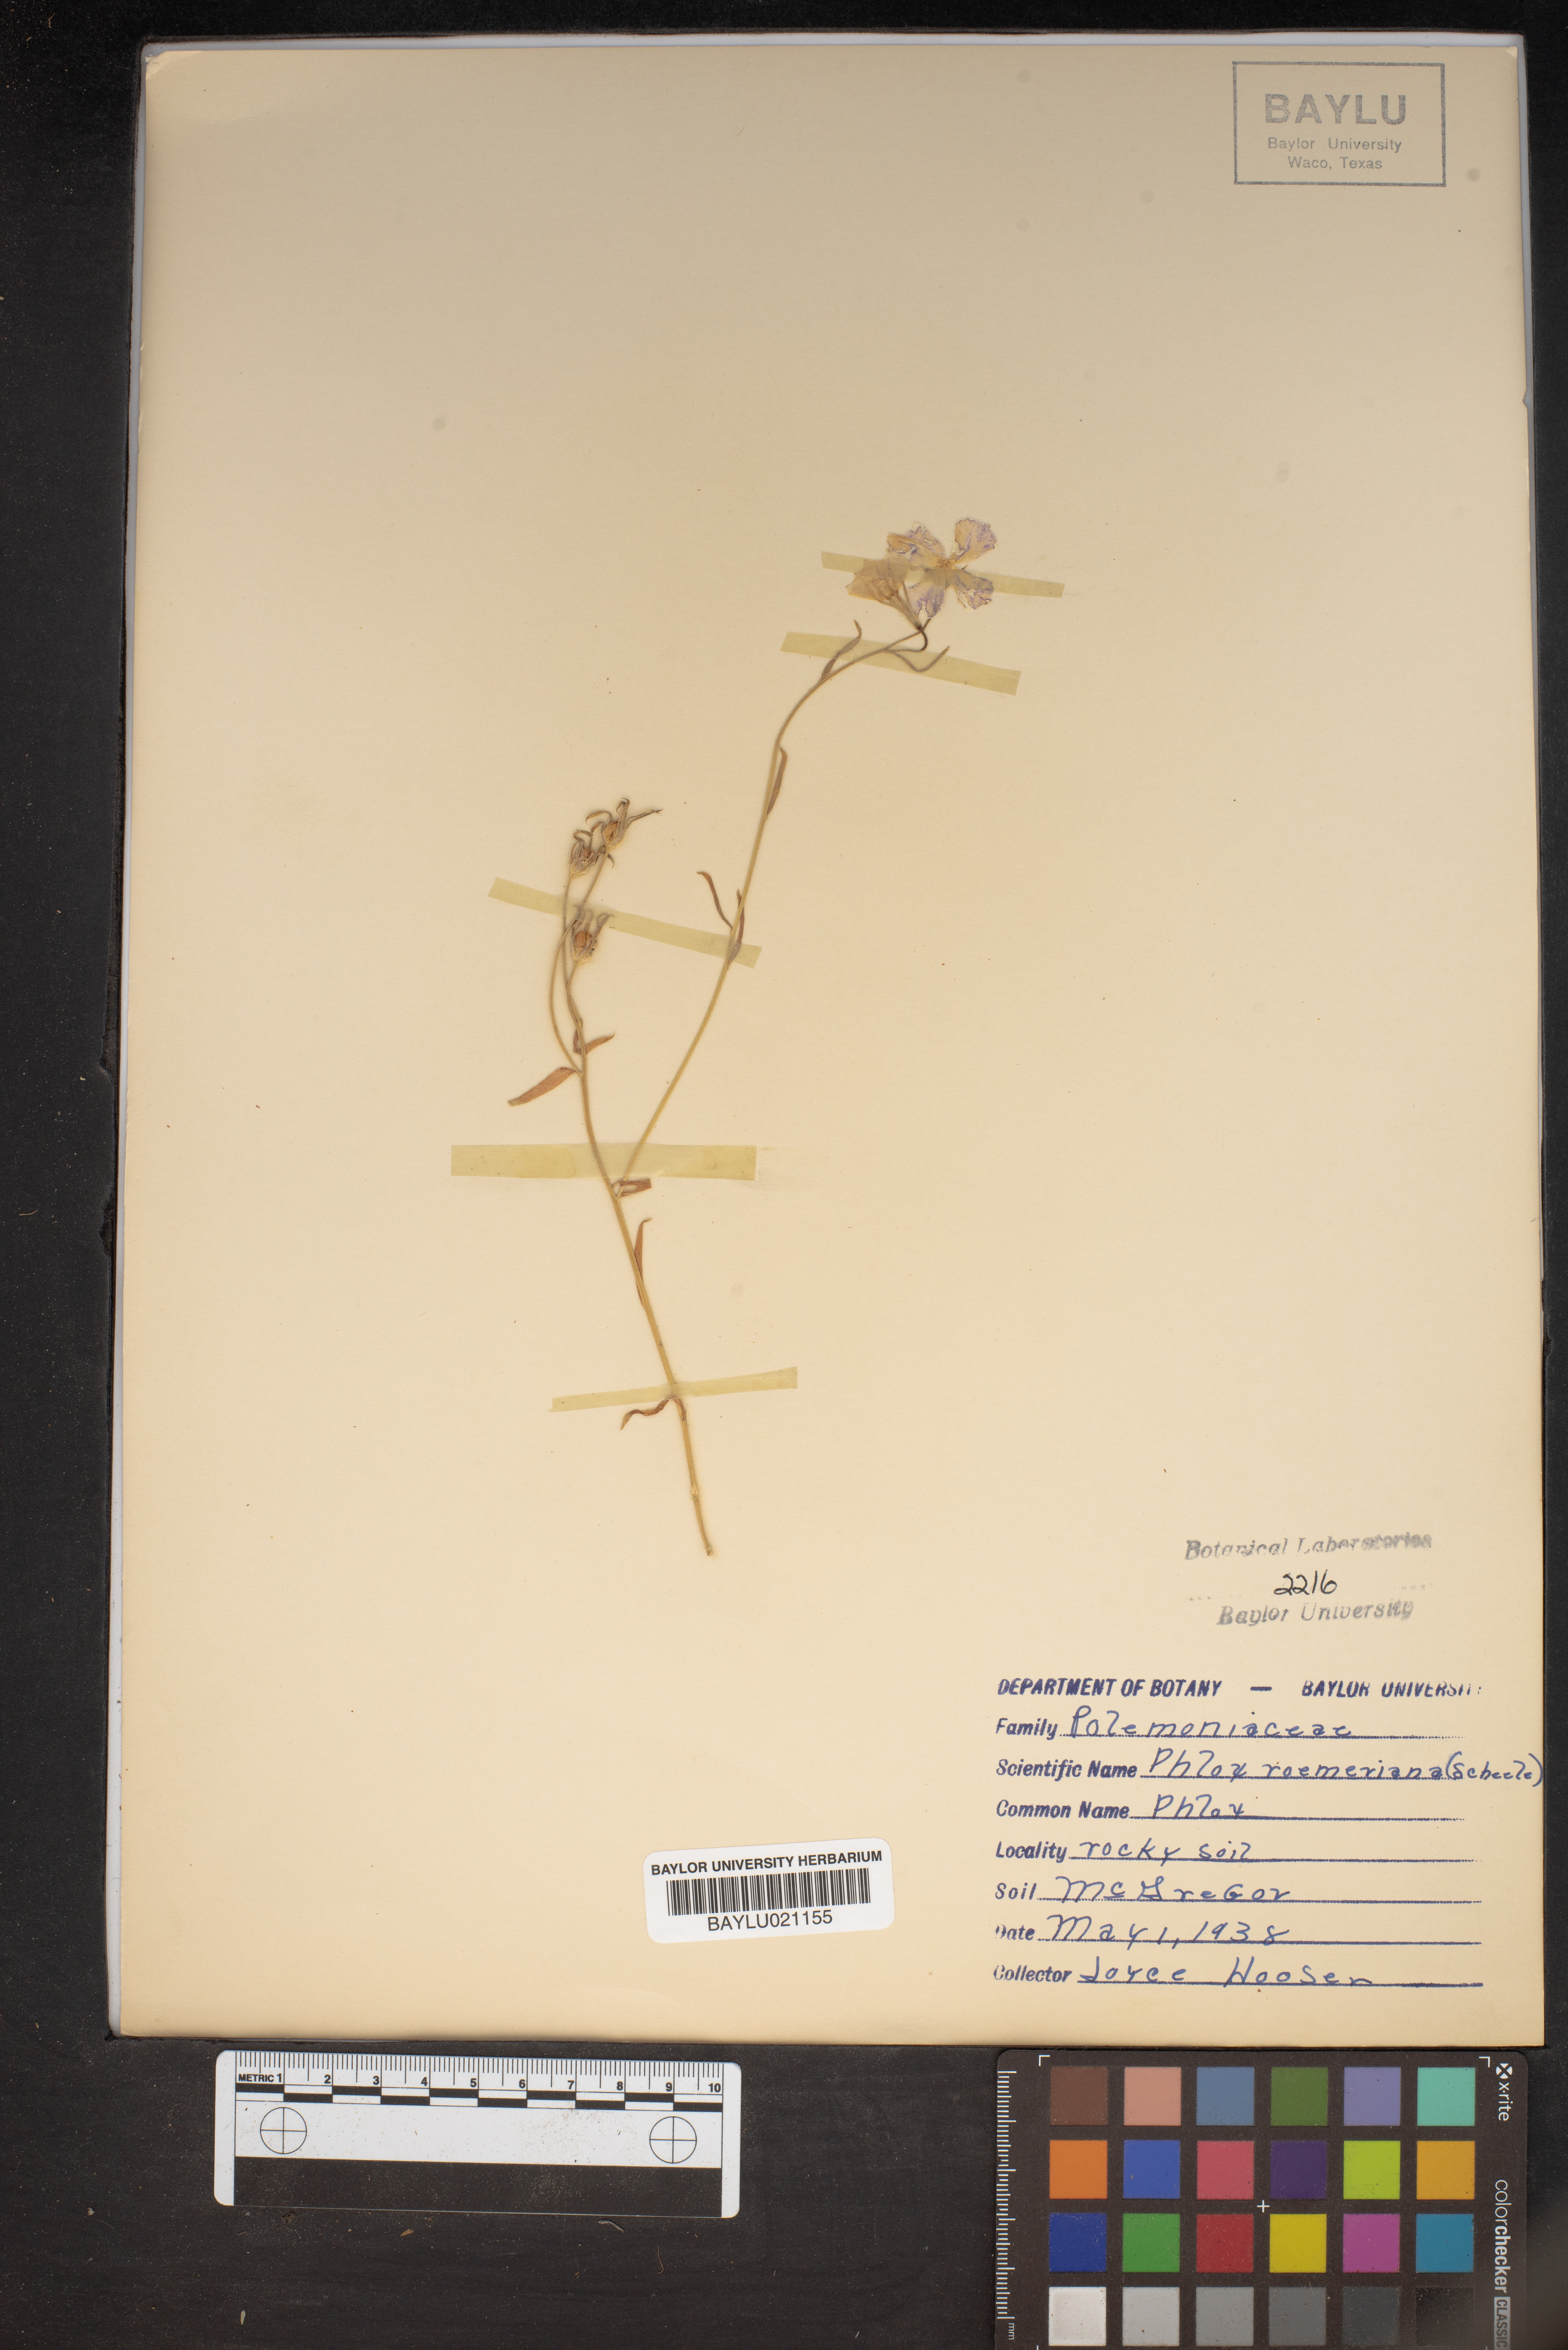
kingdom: Plantae
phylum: Tracheophyta
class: Magnoliopsida
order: Ericales
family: Polemoniaceae
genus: Phlox
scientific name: Phlox roemeriana
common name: Roemer's phlox
